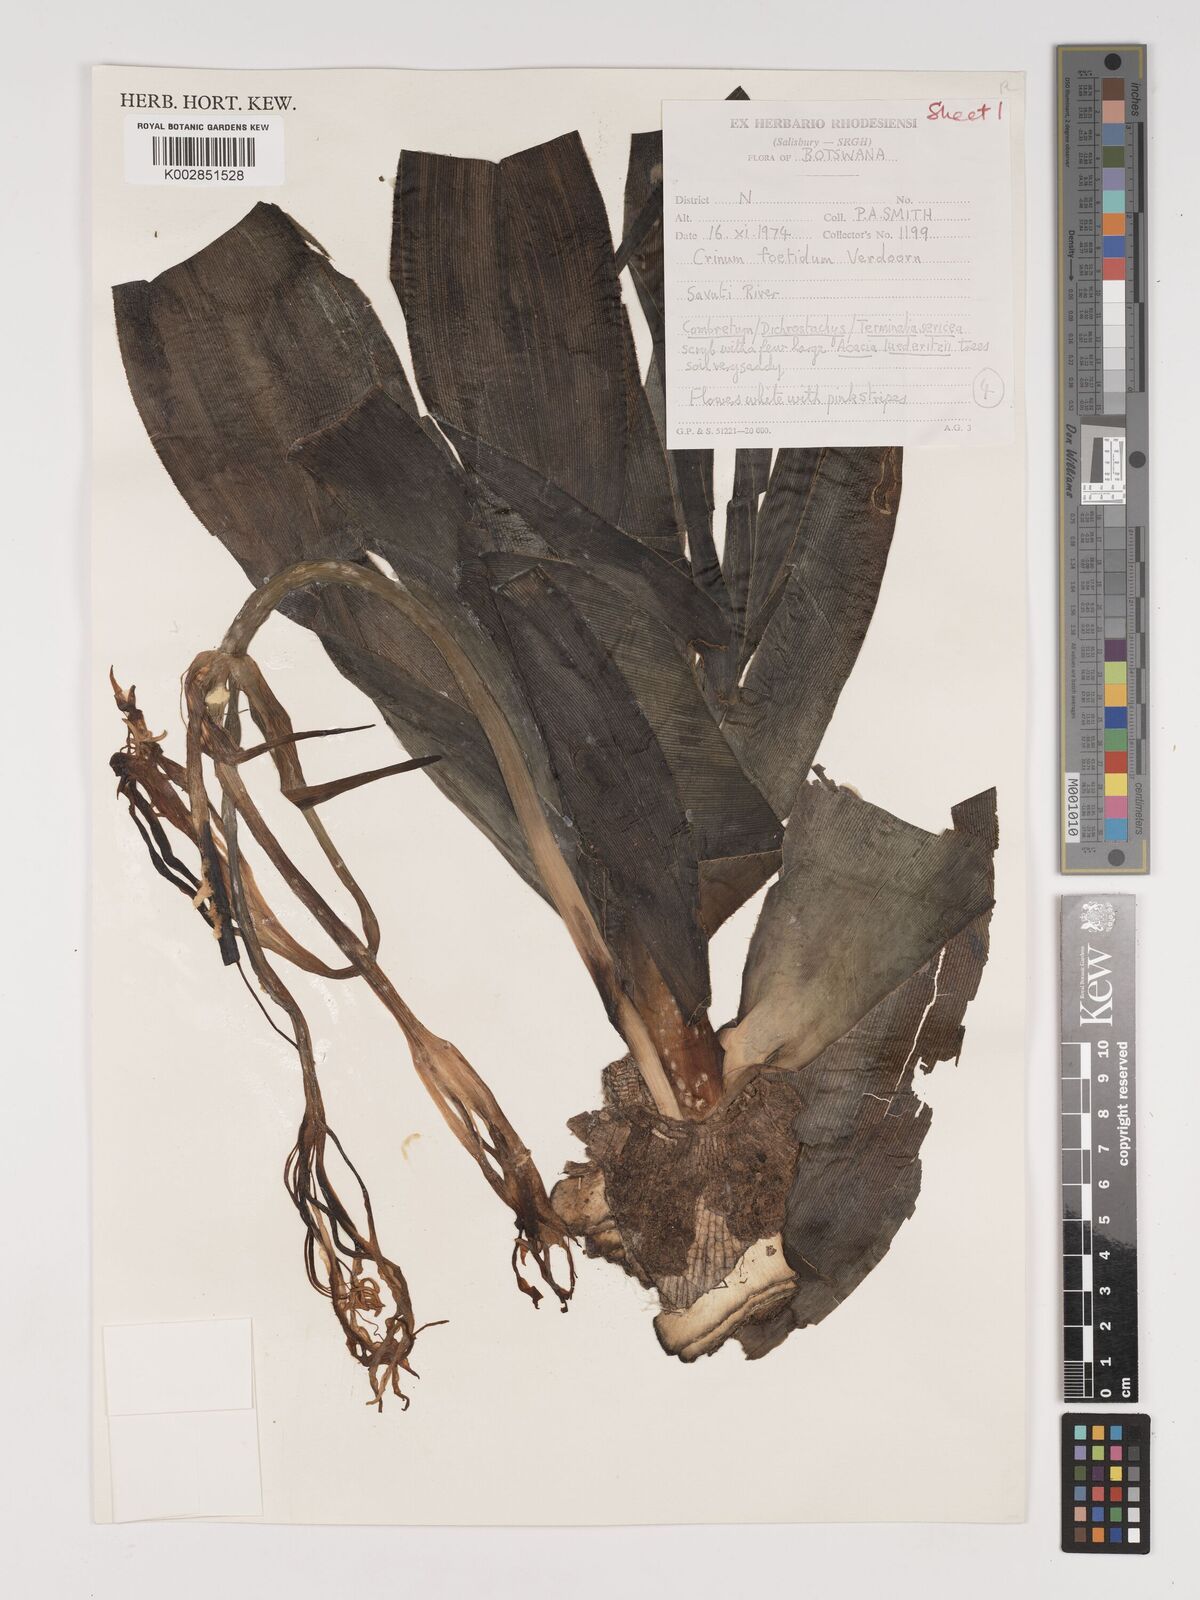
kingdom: Plantae
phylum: Tracheophyta
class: Liliopsida
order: Asparagales
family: Amaryllidaceae
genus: Crinum
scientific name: Crinum crassicaule
